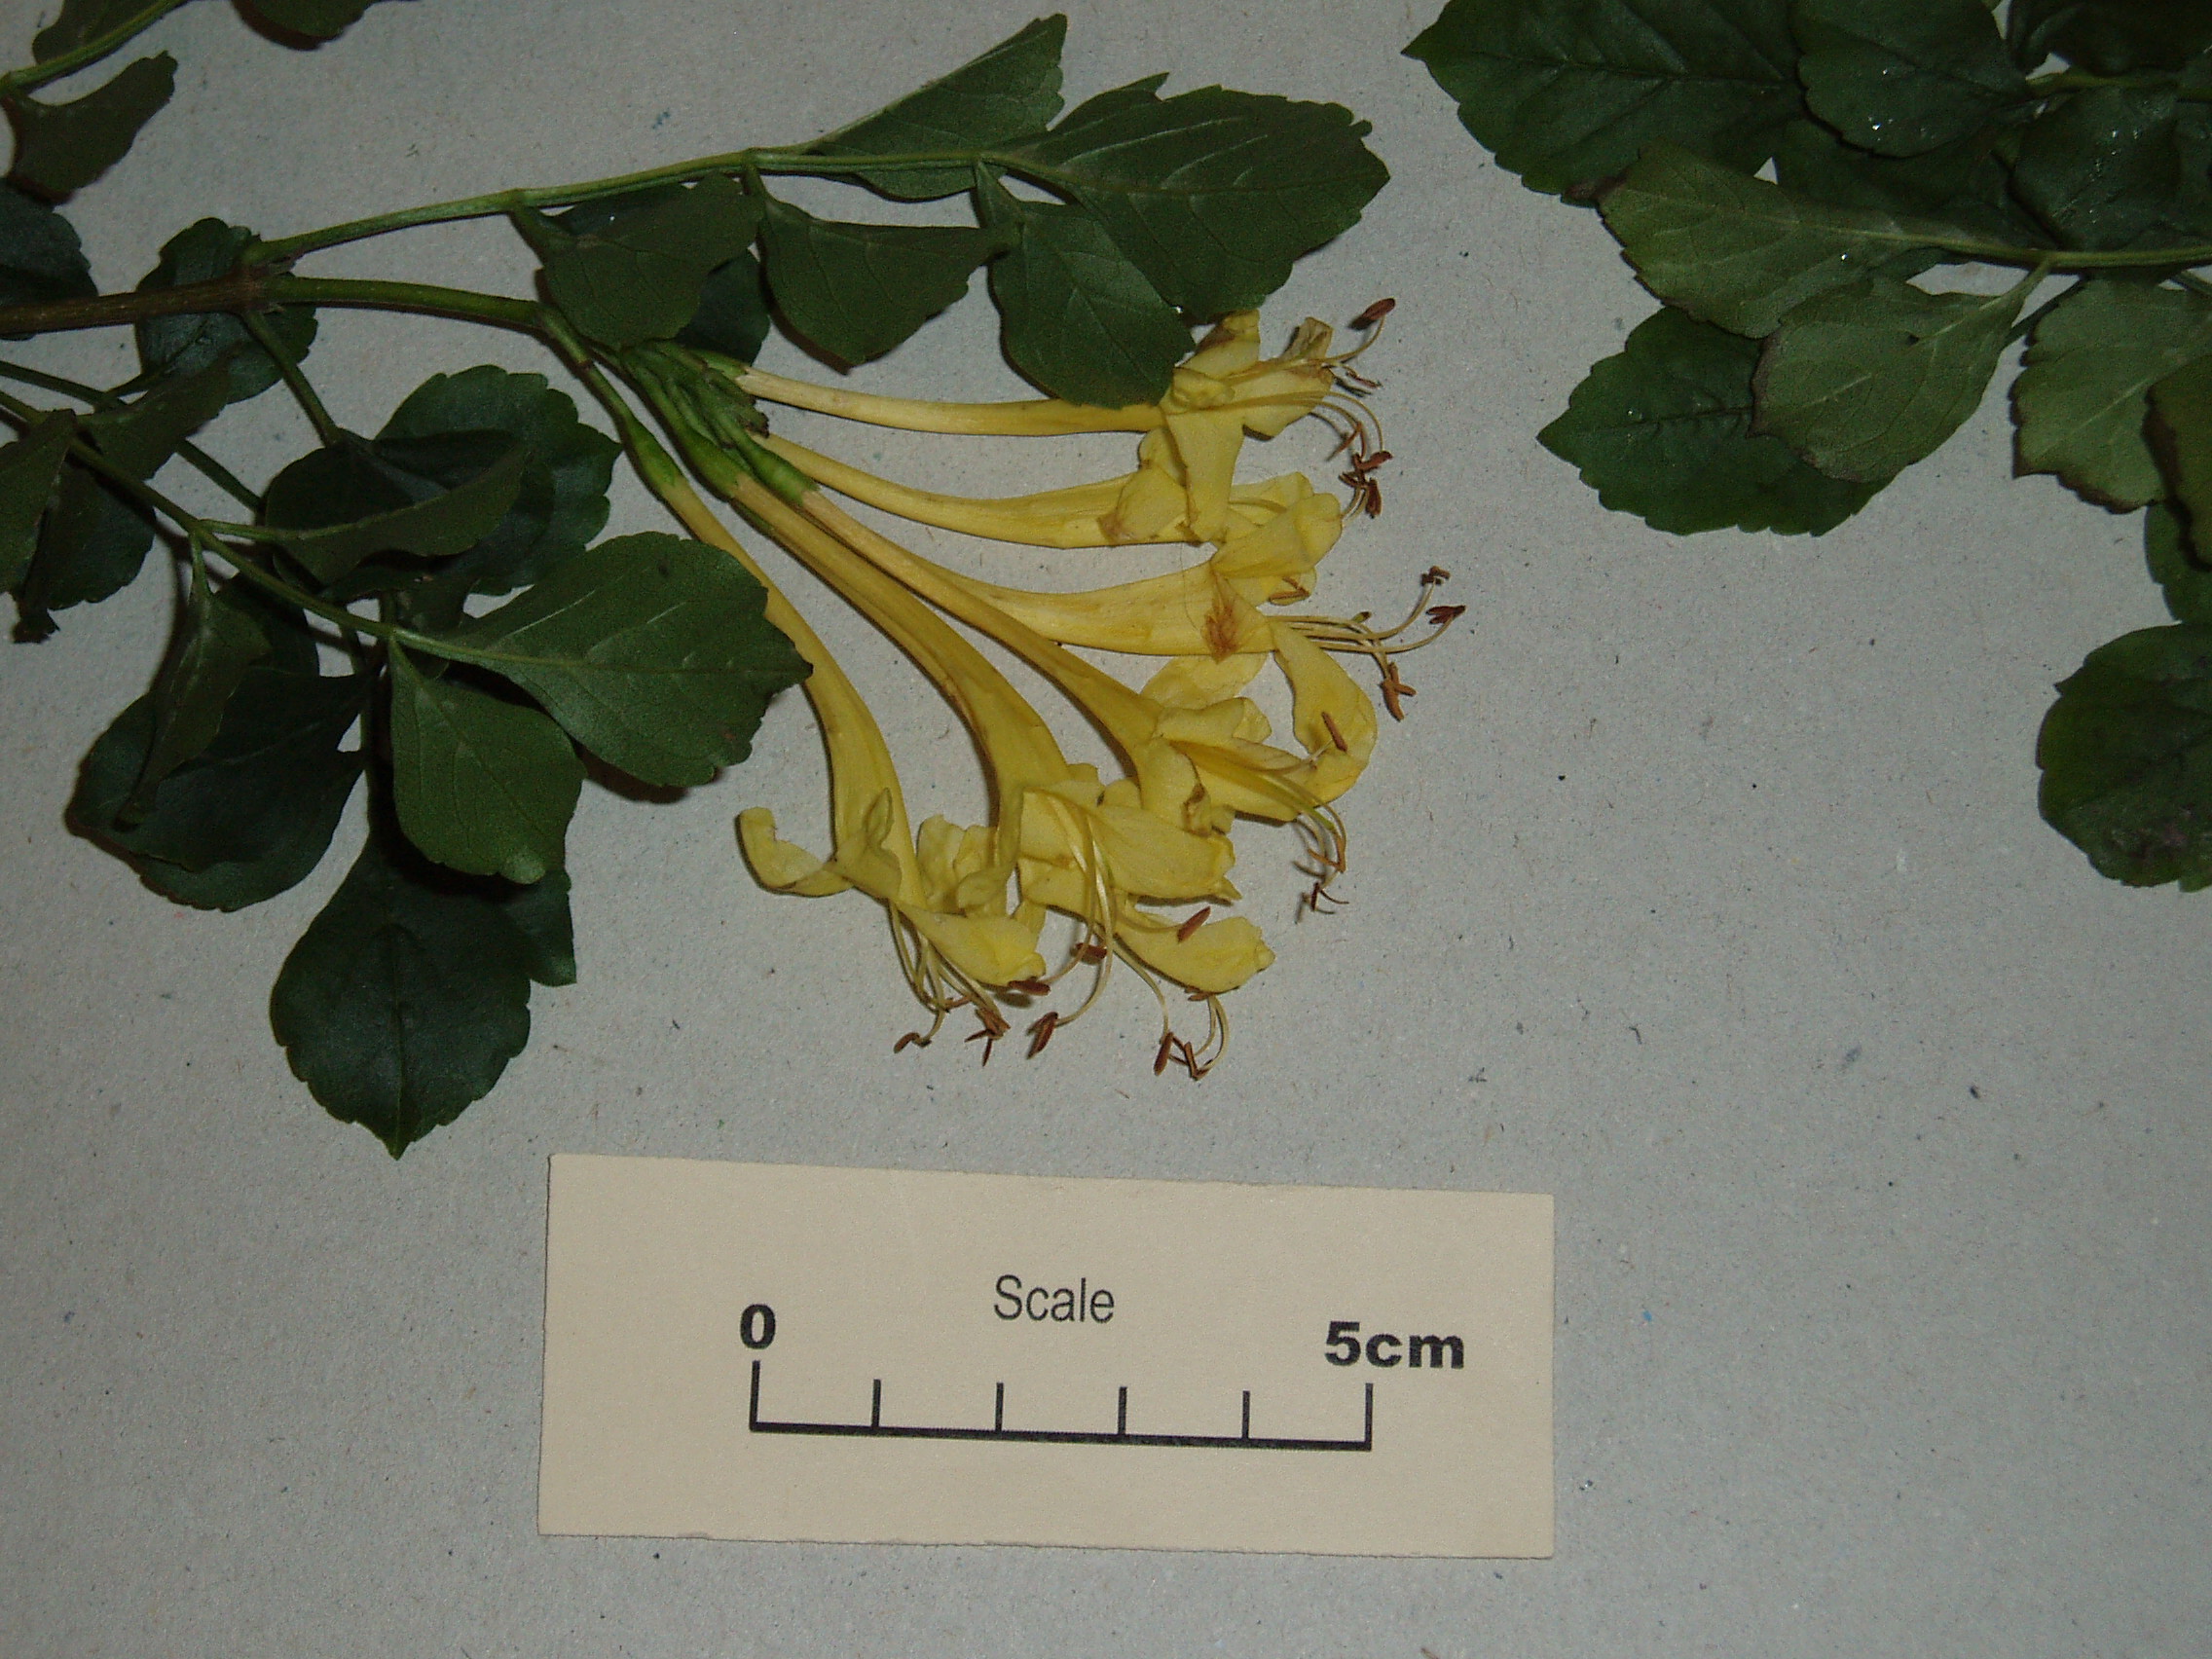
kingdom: Plantae
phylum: Tracheophyta
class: Magnoliopsida
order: Lamiales
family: Bignoniaceae
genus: Tecomaria
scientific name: Tecomaria capensis
